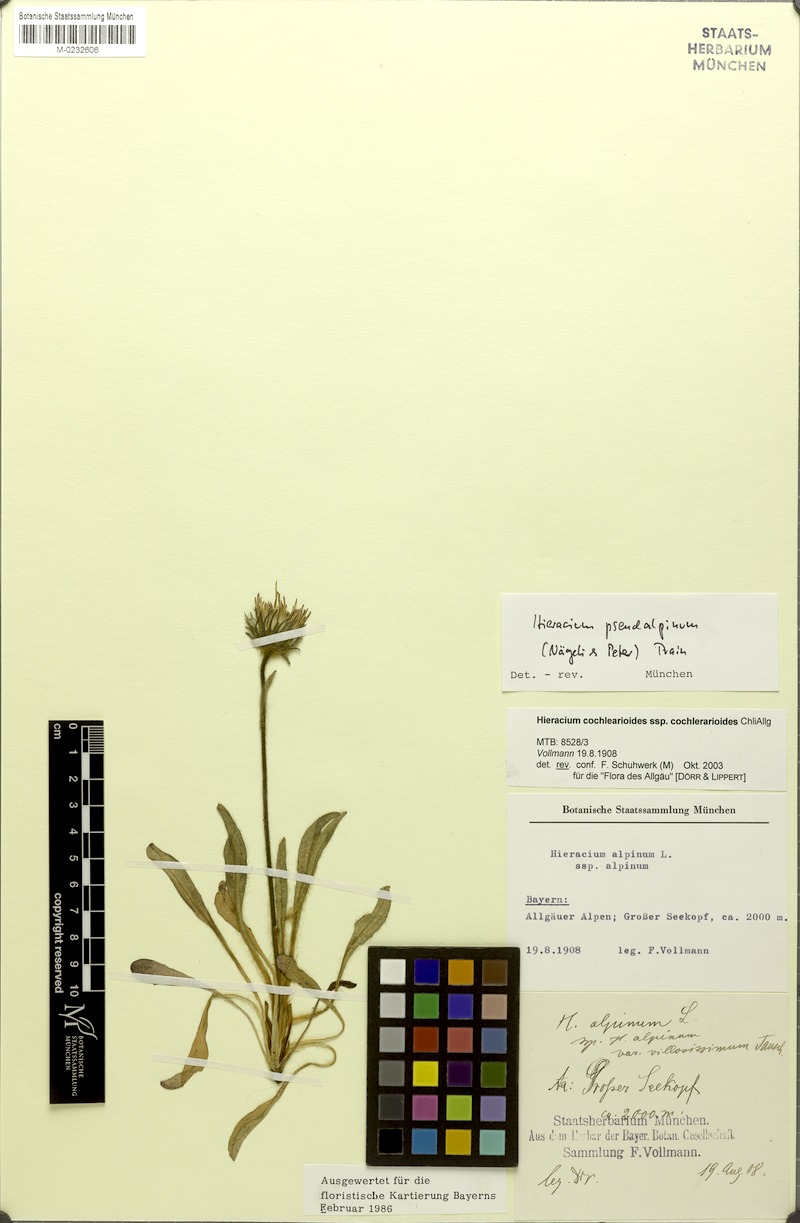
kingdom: Plantae
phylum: Tracheophyta
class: Magnoliopsida
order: Asterales
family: Asteraceae
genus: Hieracium
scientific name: Hieracium pseudalpinum
